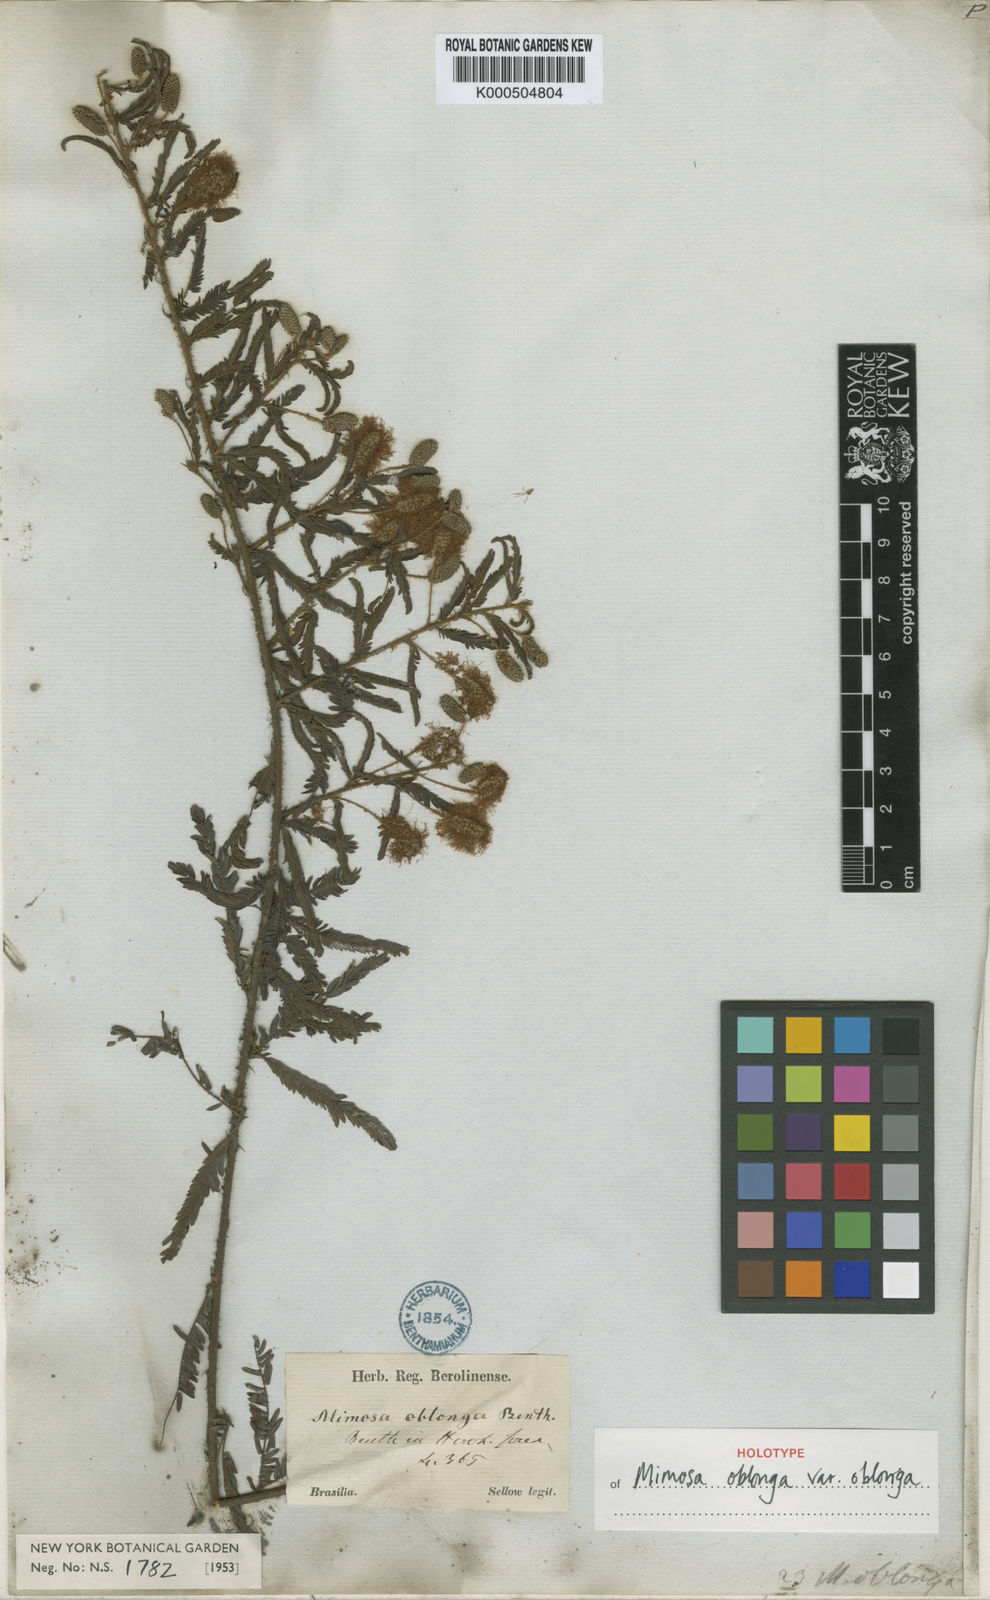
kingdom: Plantae
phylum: Tracheophyta
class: Magnoliopsida
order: Fabales
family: Fabaceae
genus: Mimosa
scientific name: Mimosa oblonga
